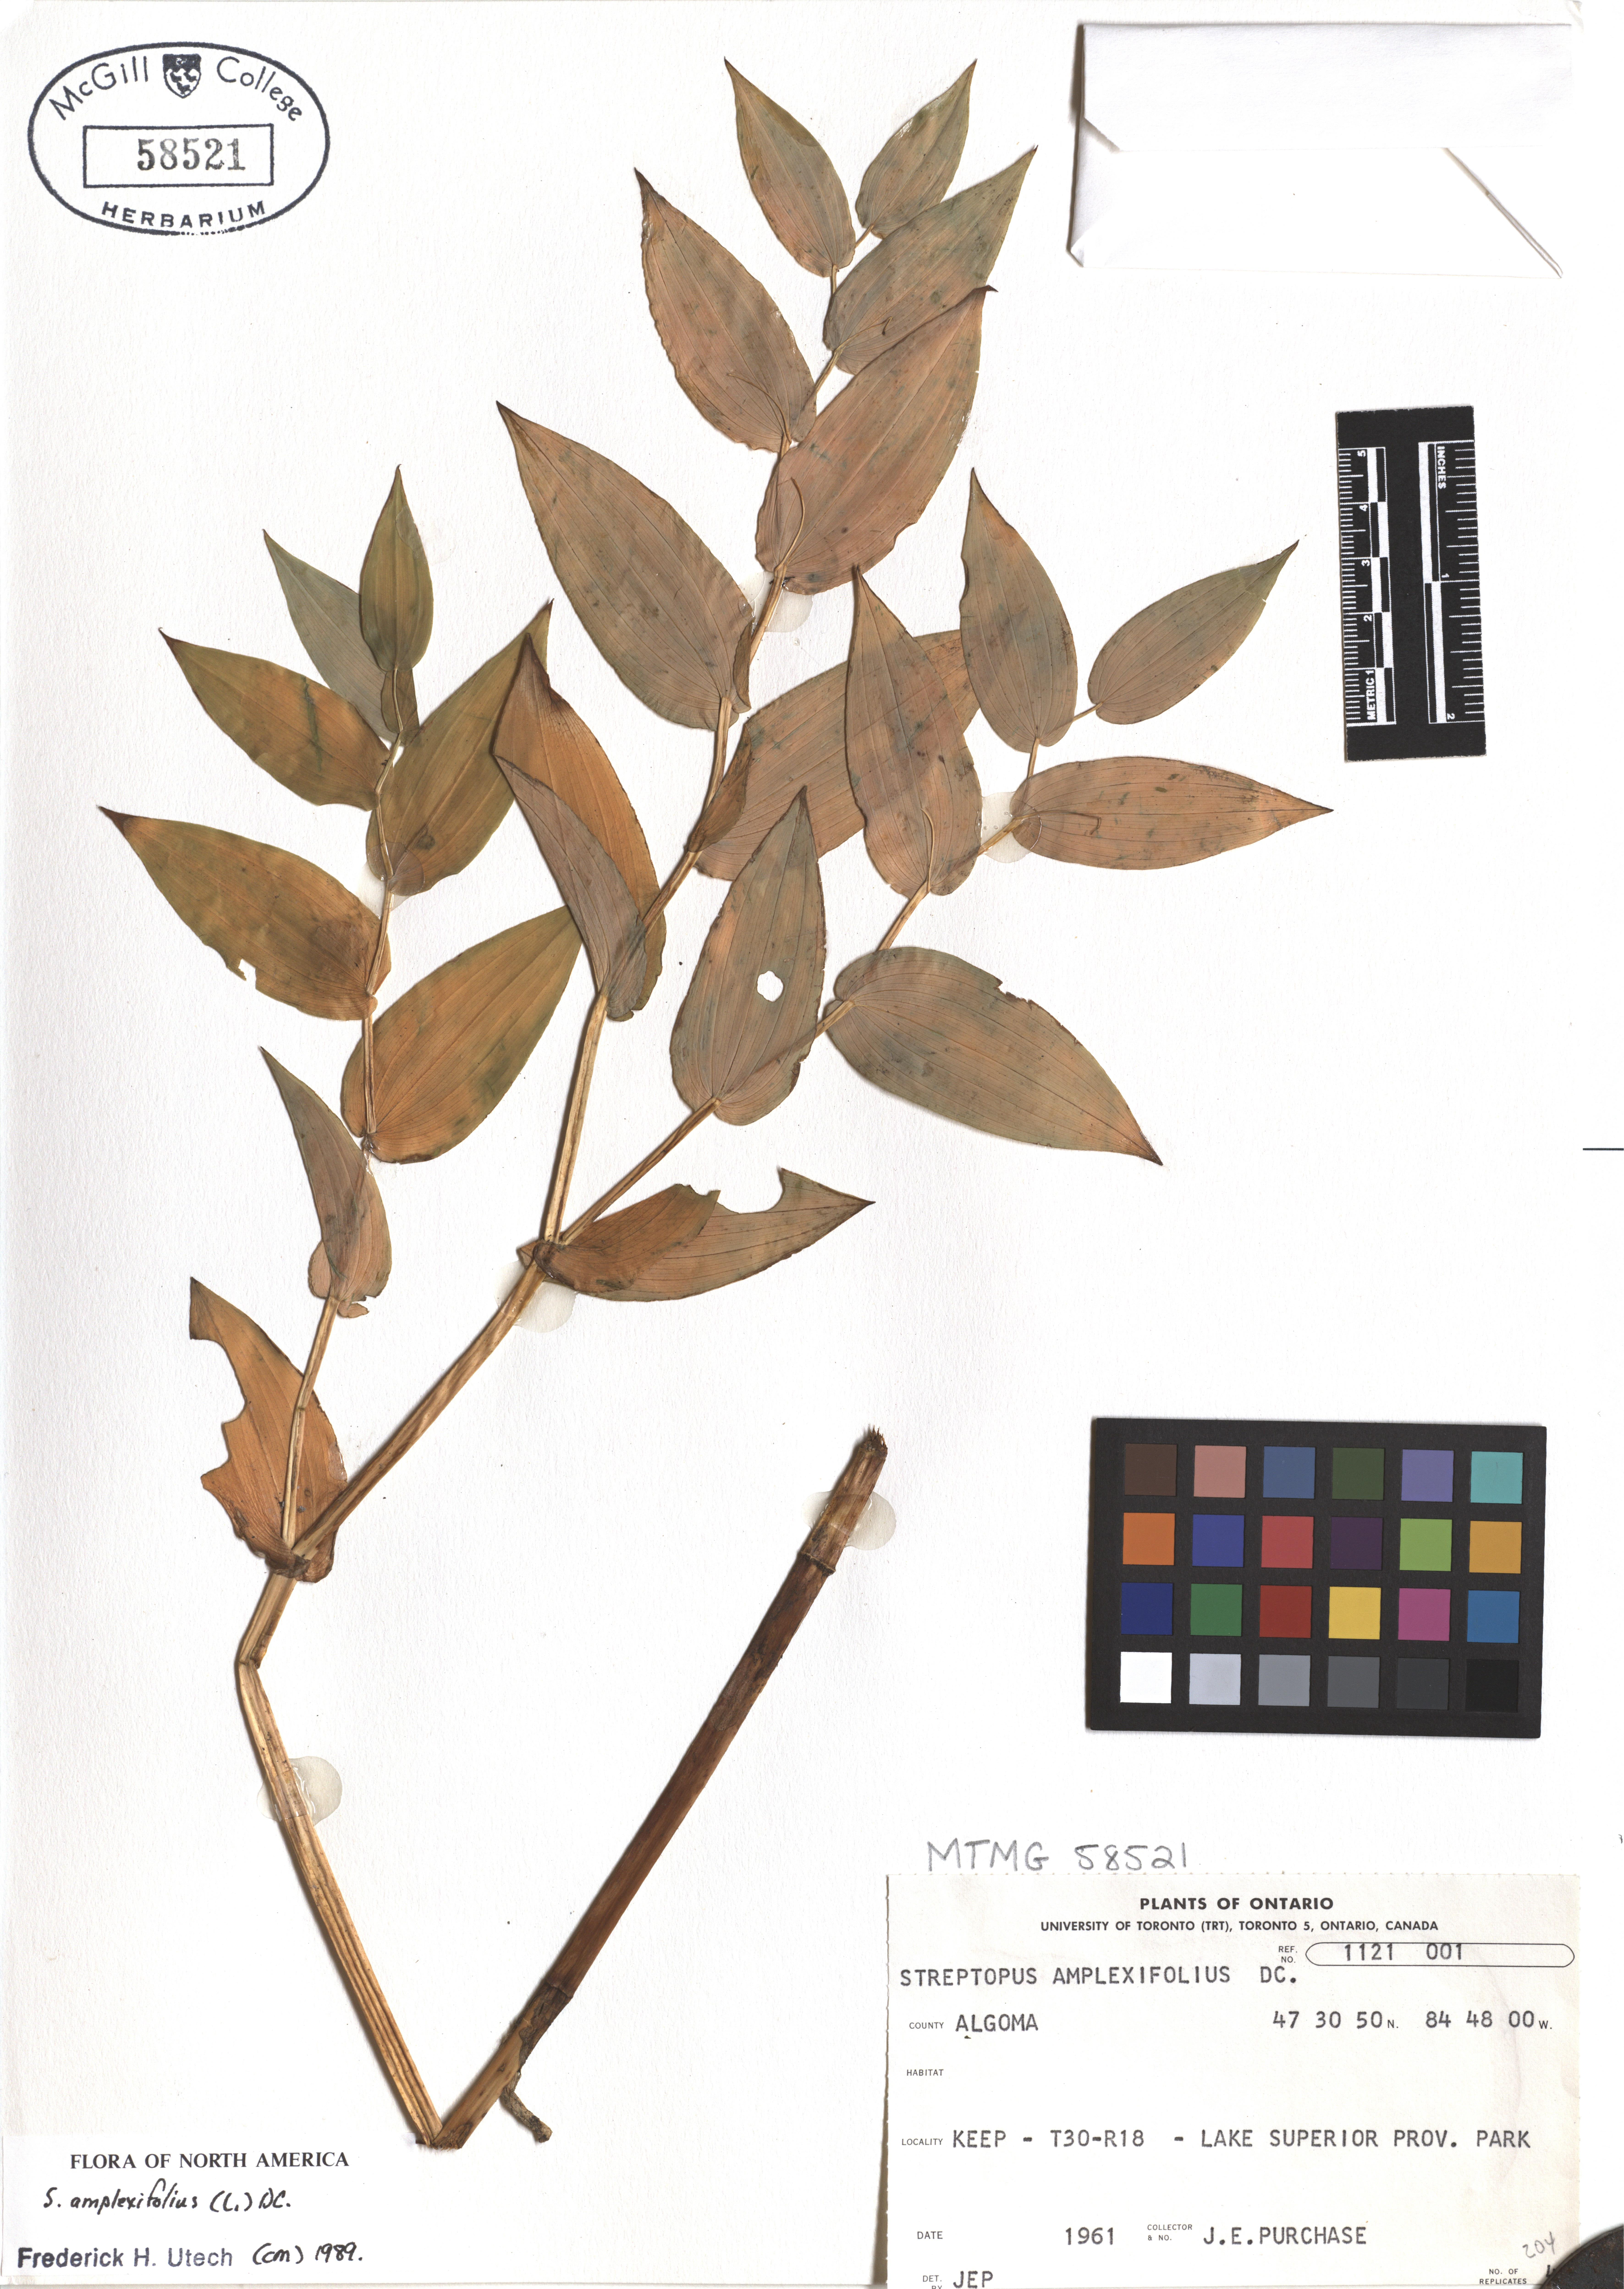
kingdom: Plantae
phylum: Tracheophyta
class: Liliopsida
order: Liliales
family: Liliaceae
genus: Streptopus
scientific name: Streptopus amplexifolius
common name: Clasp twisted stalk
